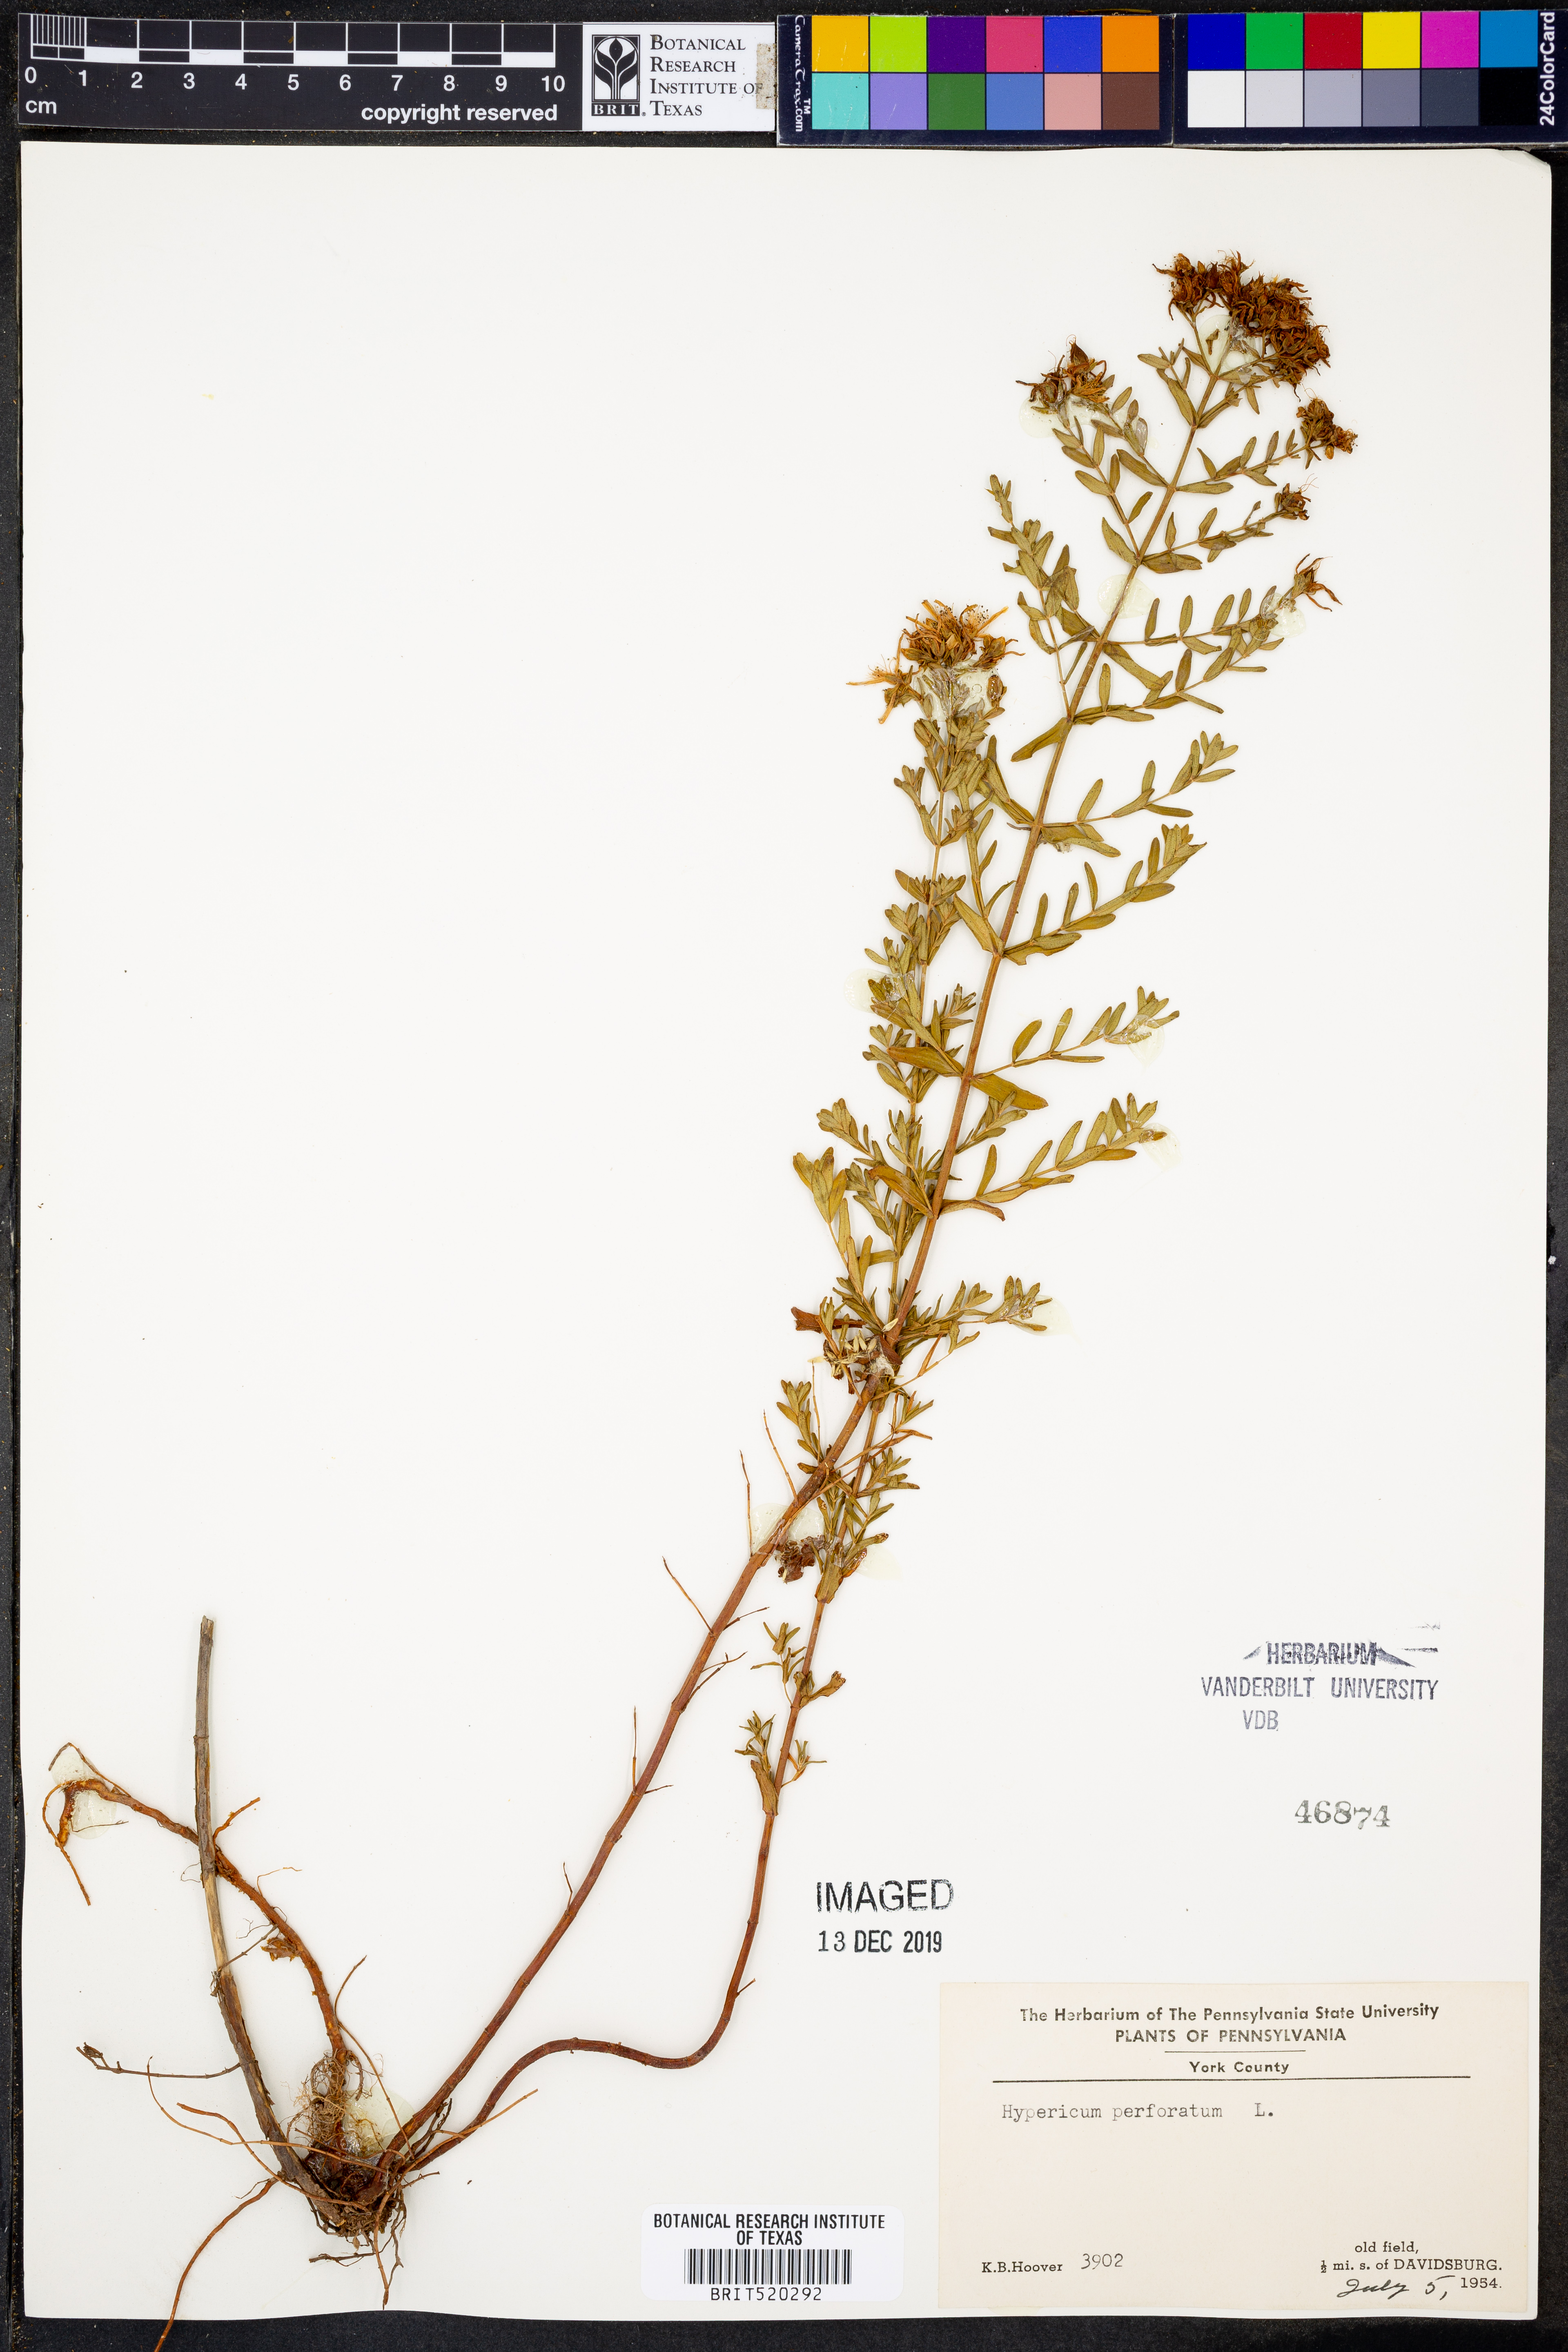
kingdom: Plantae
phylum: Tracheophyta
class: Magnoliopsida
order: Malpighiales
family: Hypericaceae
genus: Hypericum
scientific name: Hypericum perforatum
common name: Common st. johnswort
